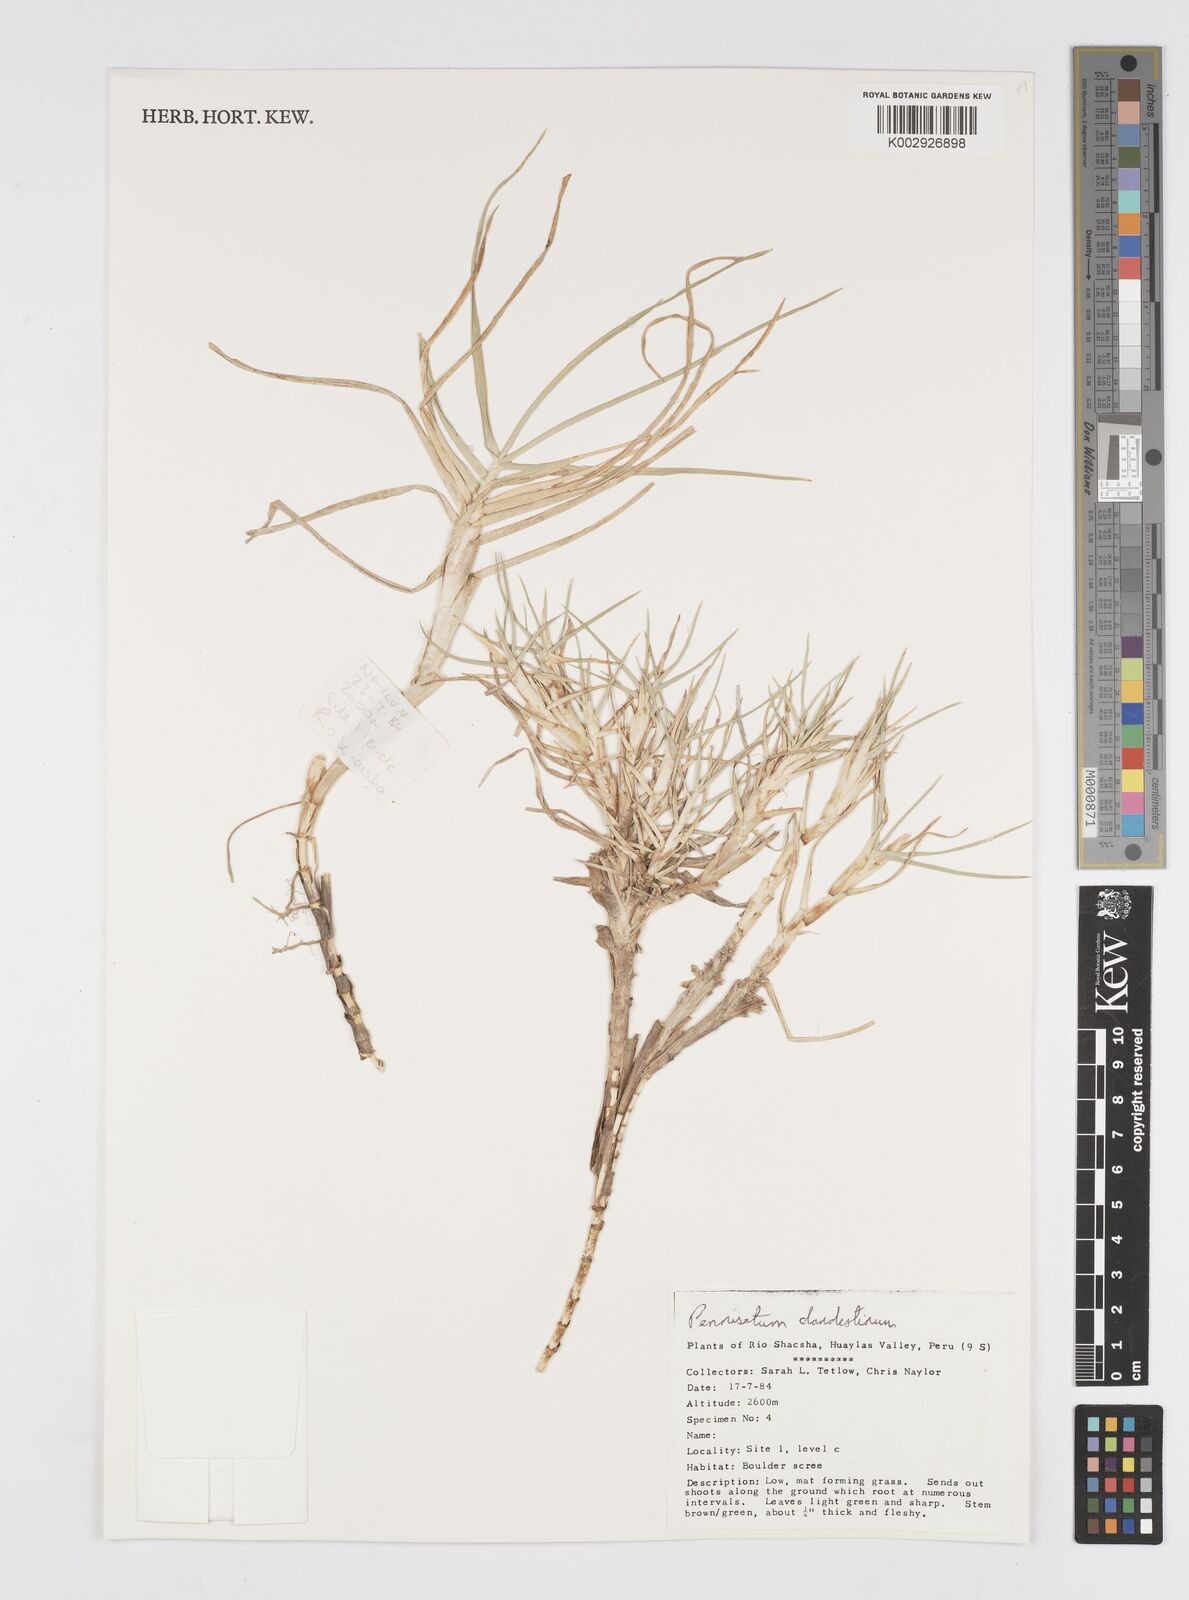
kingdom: Plantae
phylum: Tracheophyta
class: Liliopsida
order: Poales
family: Poaceae
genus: Cenchrus
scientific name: Cenchrus clandestinus
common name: Kikuyugrass
